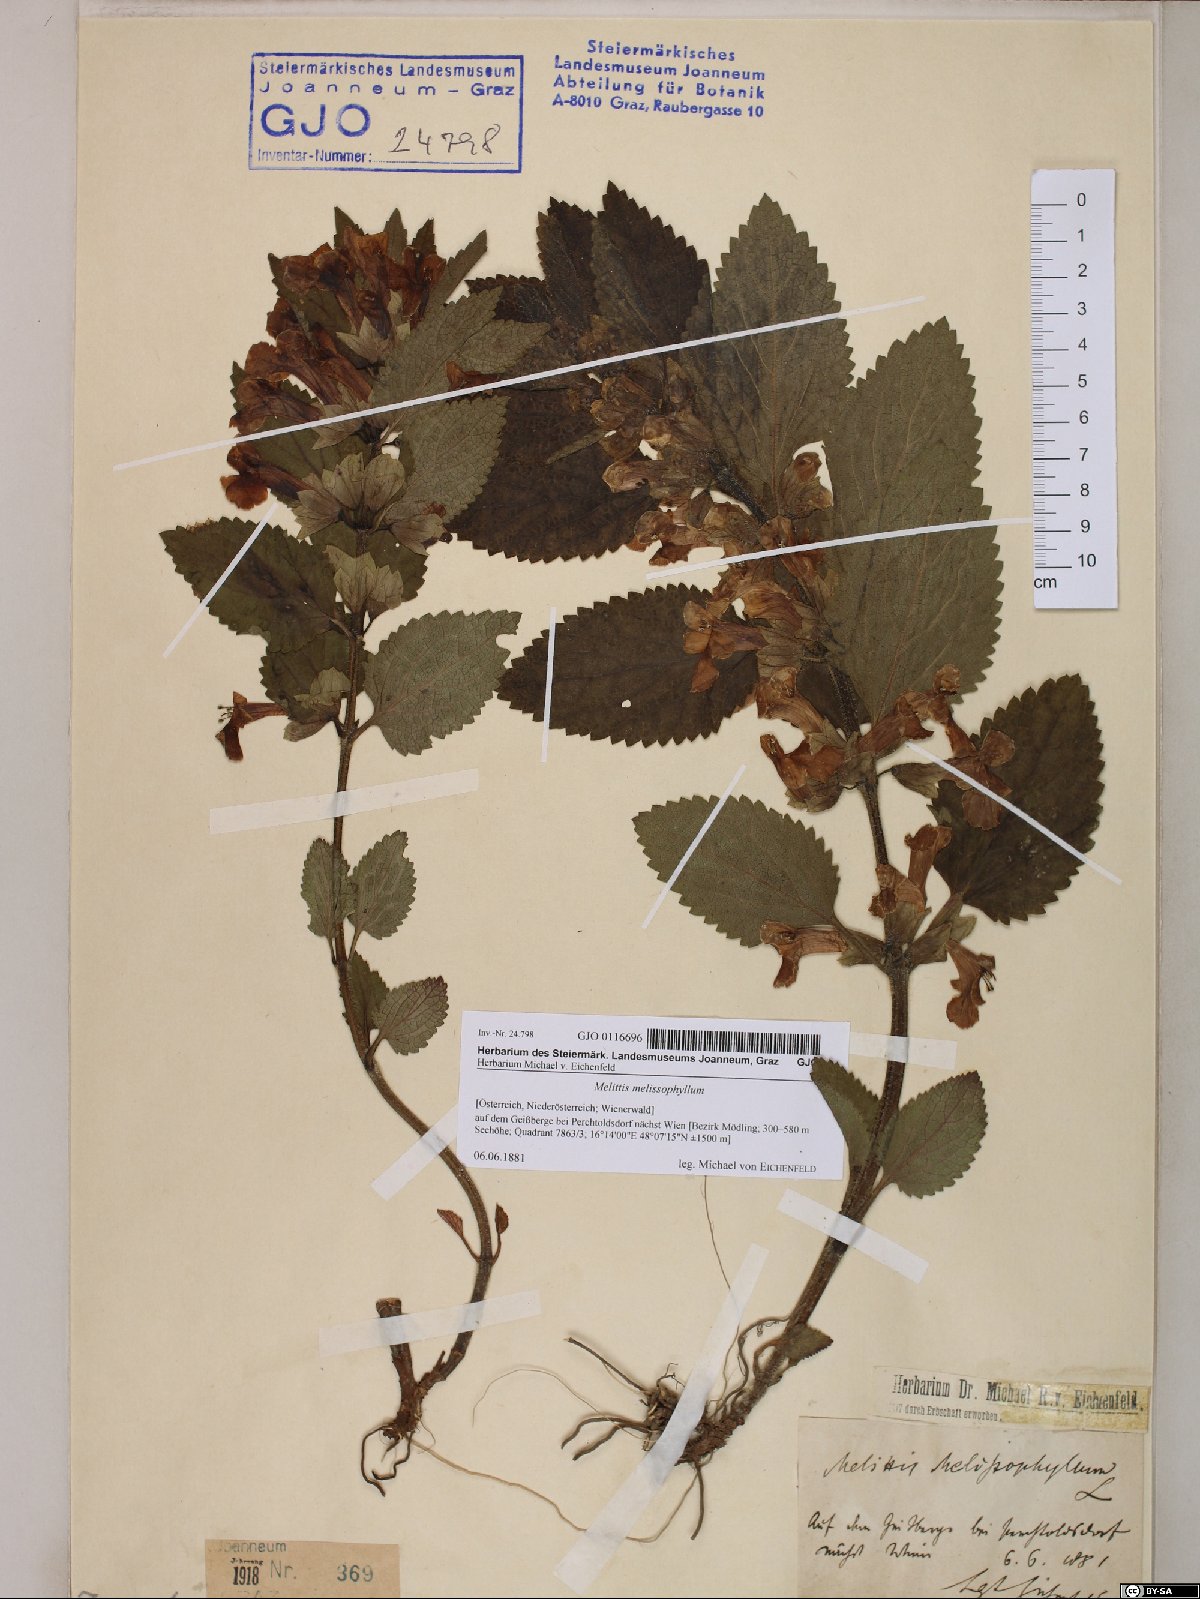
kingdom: Plantae
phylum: Tracheophyta
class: Magnoliopsida
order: Lamiales
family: Lamiaceae
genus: Melittis
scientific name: Melittis melissophyllum
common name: Bastard balm
